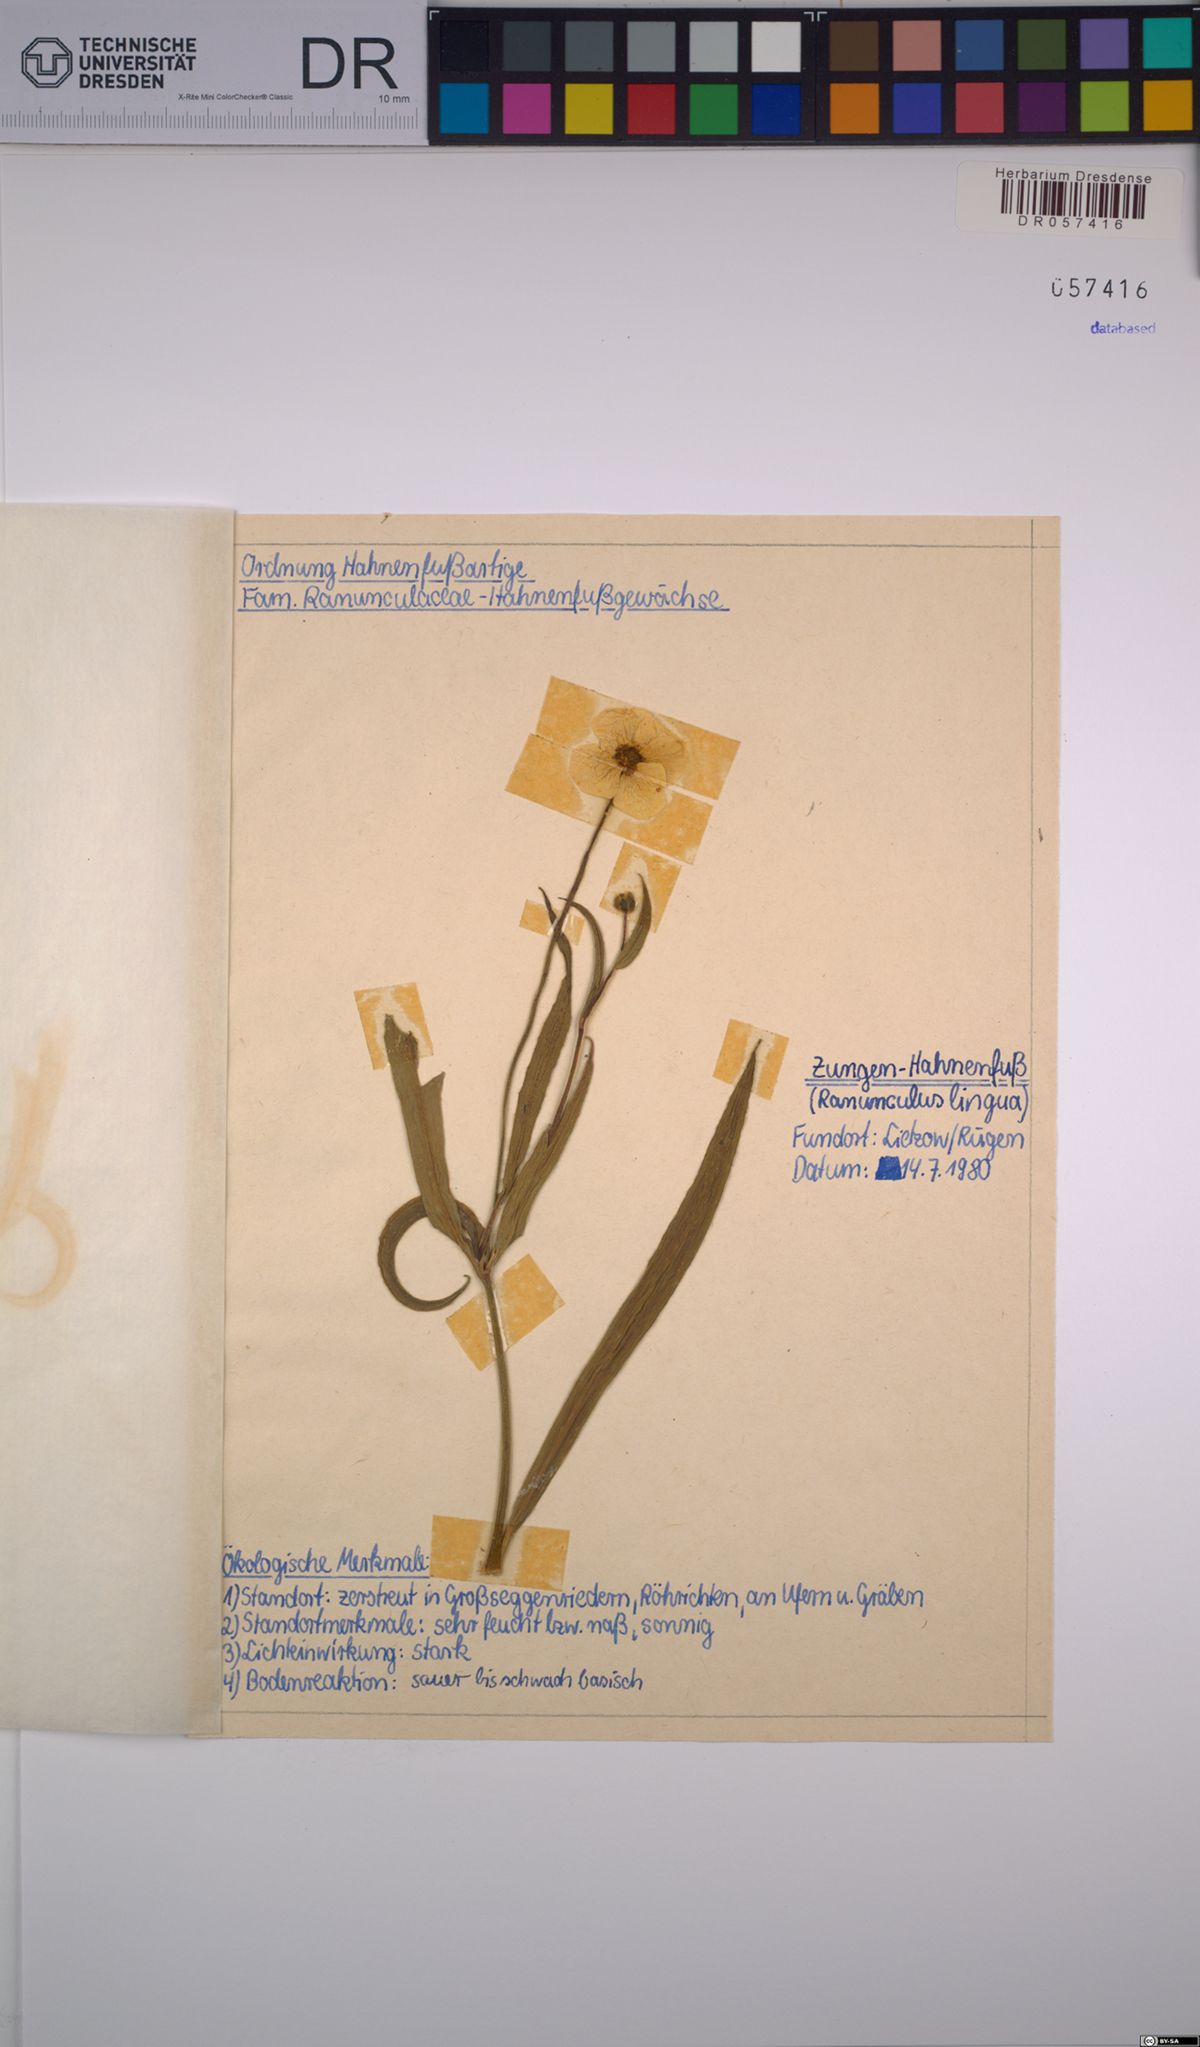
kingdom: Plantae
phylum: Tracheophyta
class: Magnoliopsida
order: Ranunculales
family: Ranunculaceae
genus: Ranunculus
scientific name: Ranunculus lingua
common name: Greater spearwort
